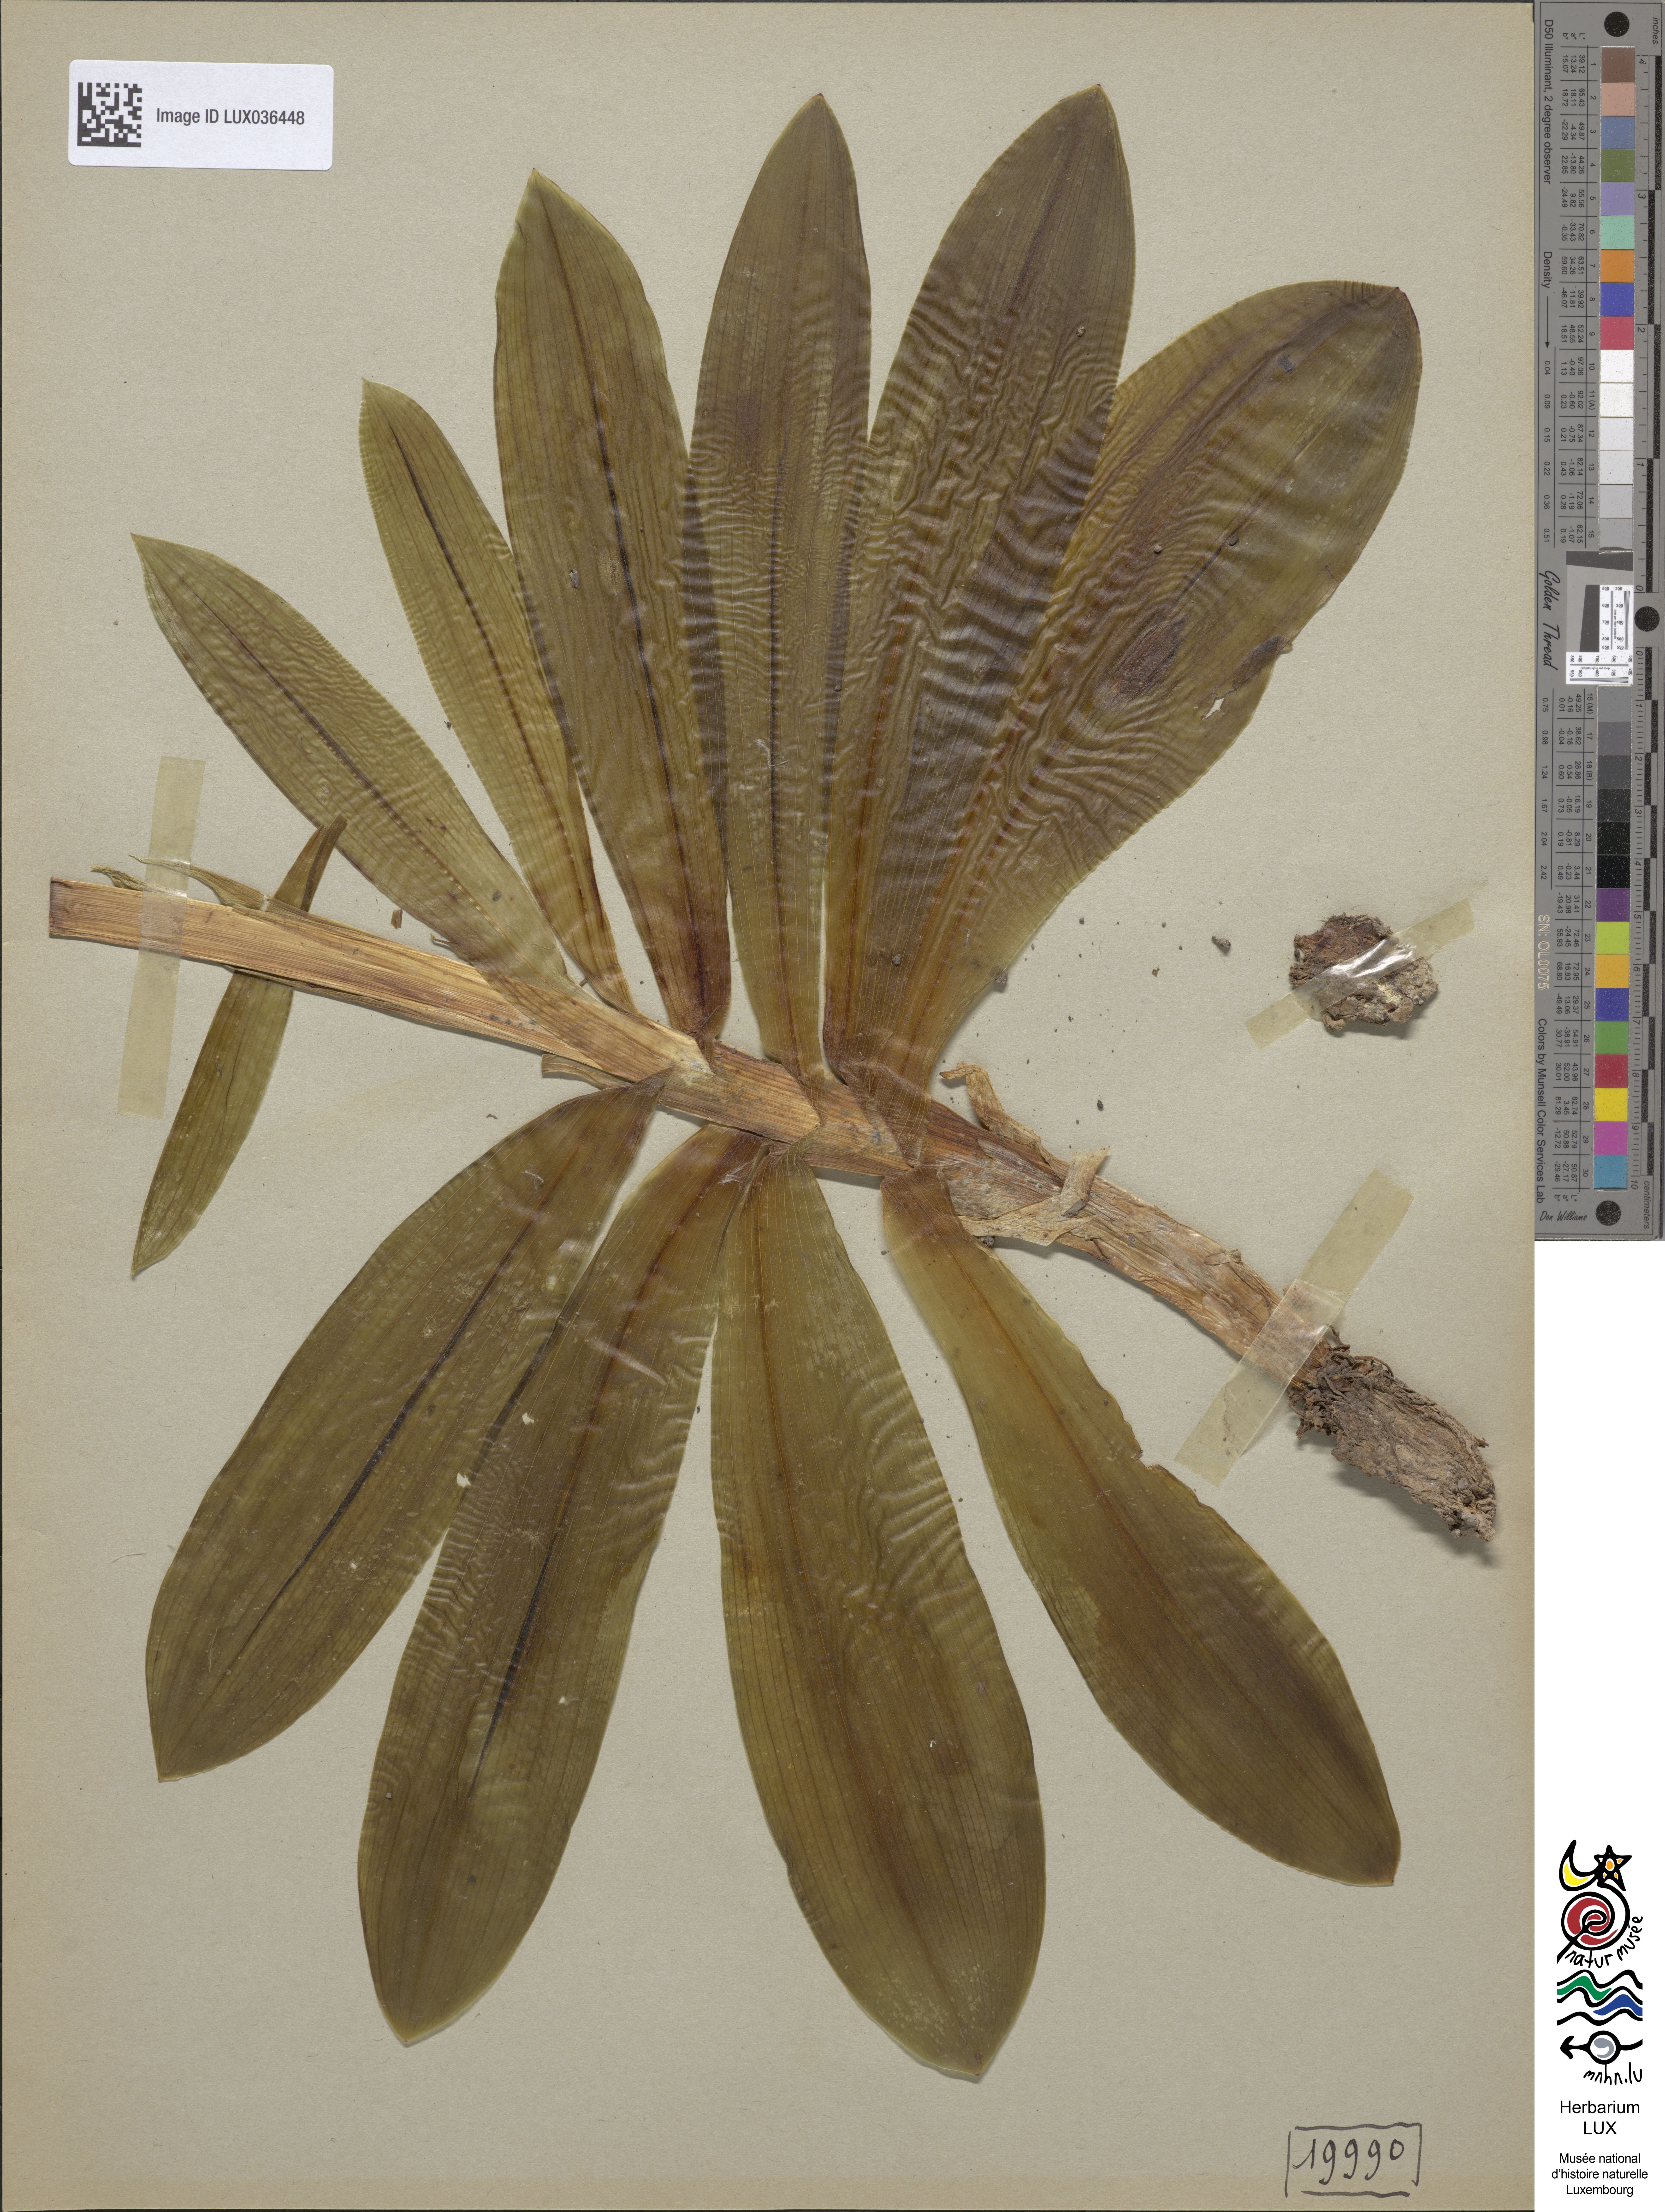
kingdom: Plantae
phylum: Tracheophyta
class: Liliopsida
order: Asparagales
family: Orchidaceae
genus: Orchis
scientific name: Orchis purpurea
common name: Lady orchid
